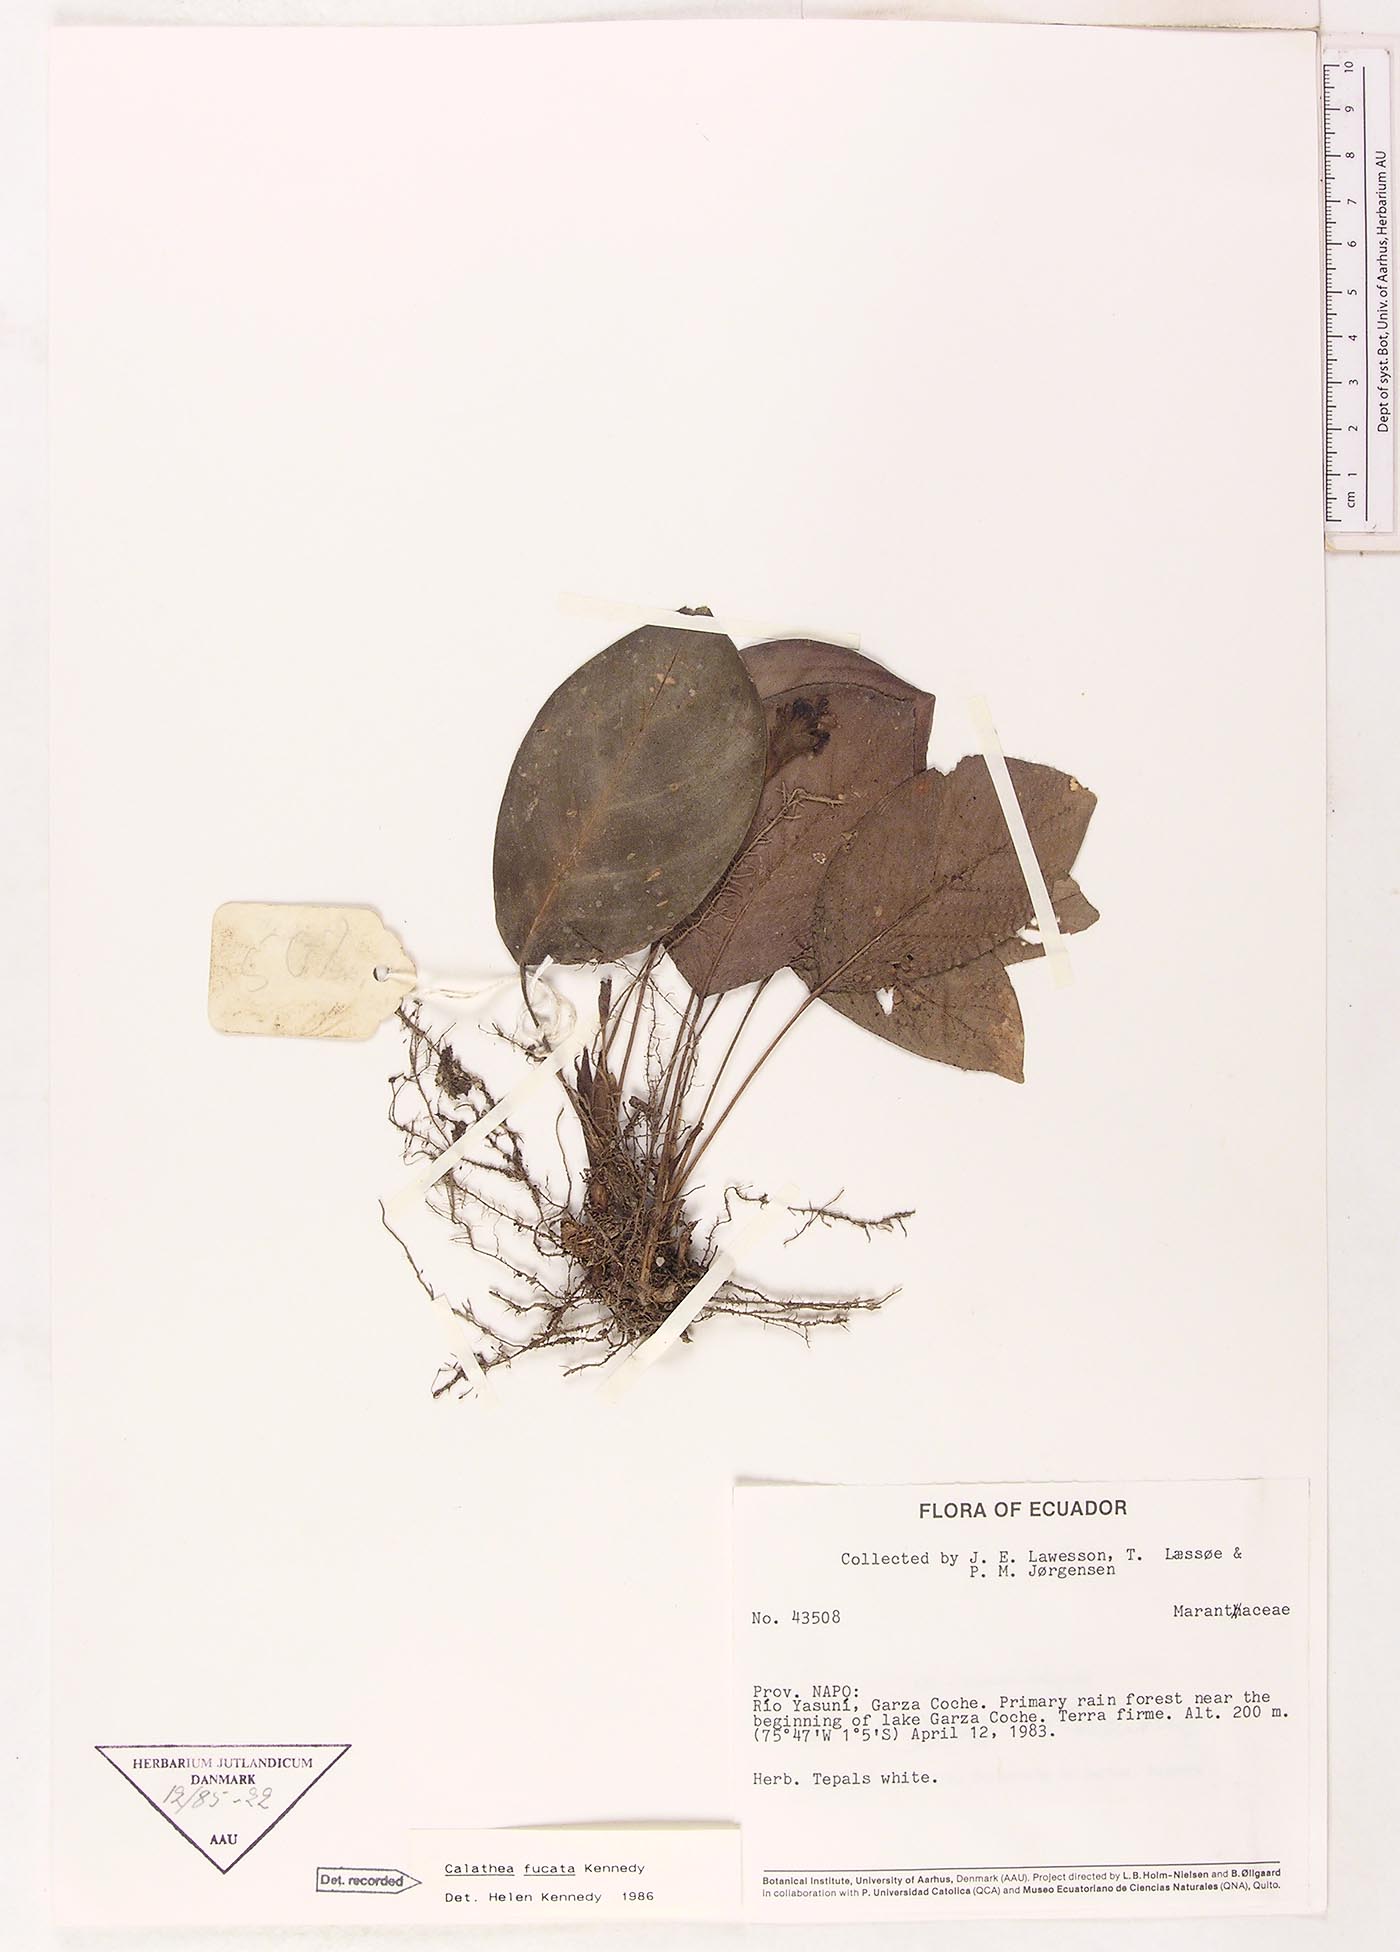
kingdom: Plantae
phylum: Tracheophyta
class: Liliopsida
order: Zingiberales
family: Marantaceae
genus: Goeppertia
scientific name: Goeppertia fucata
